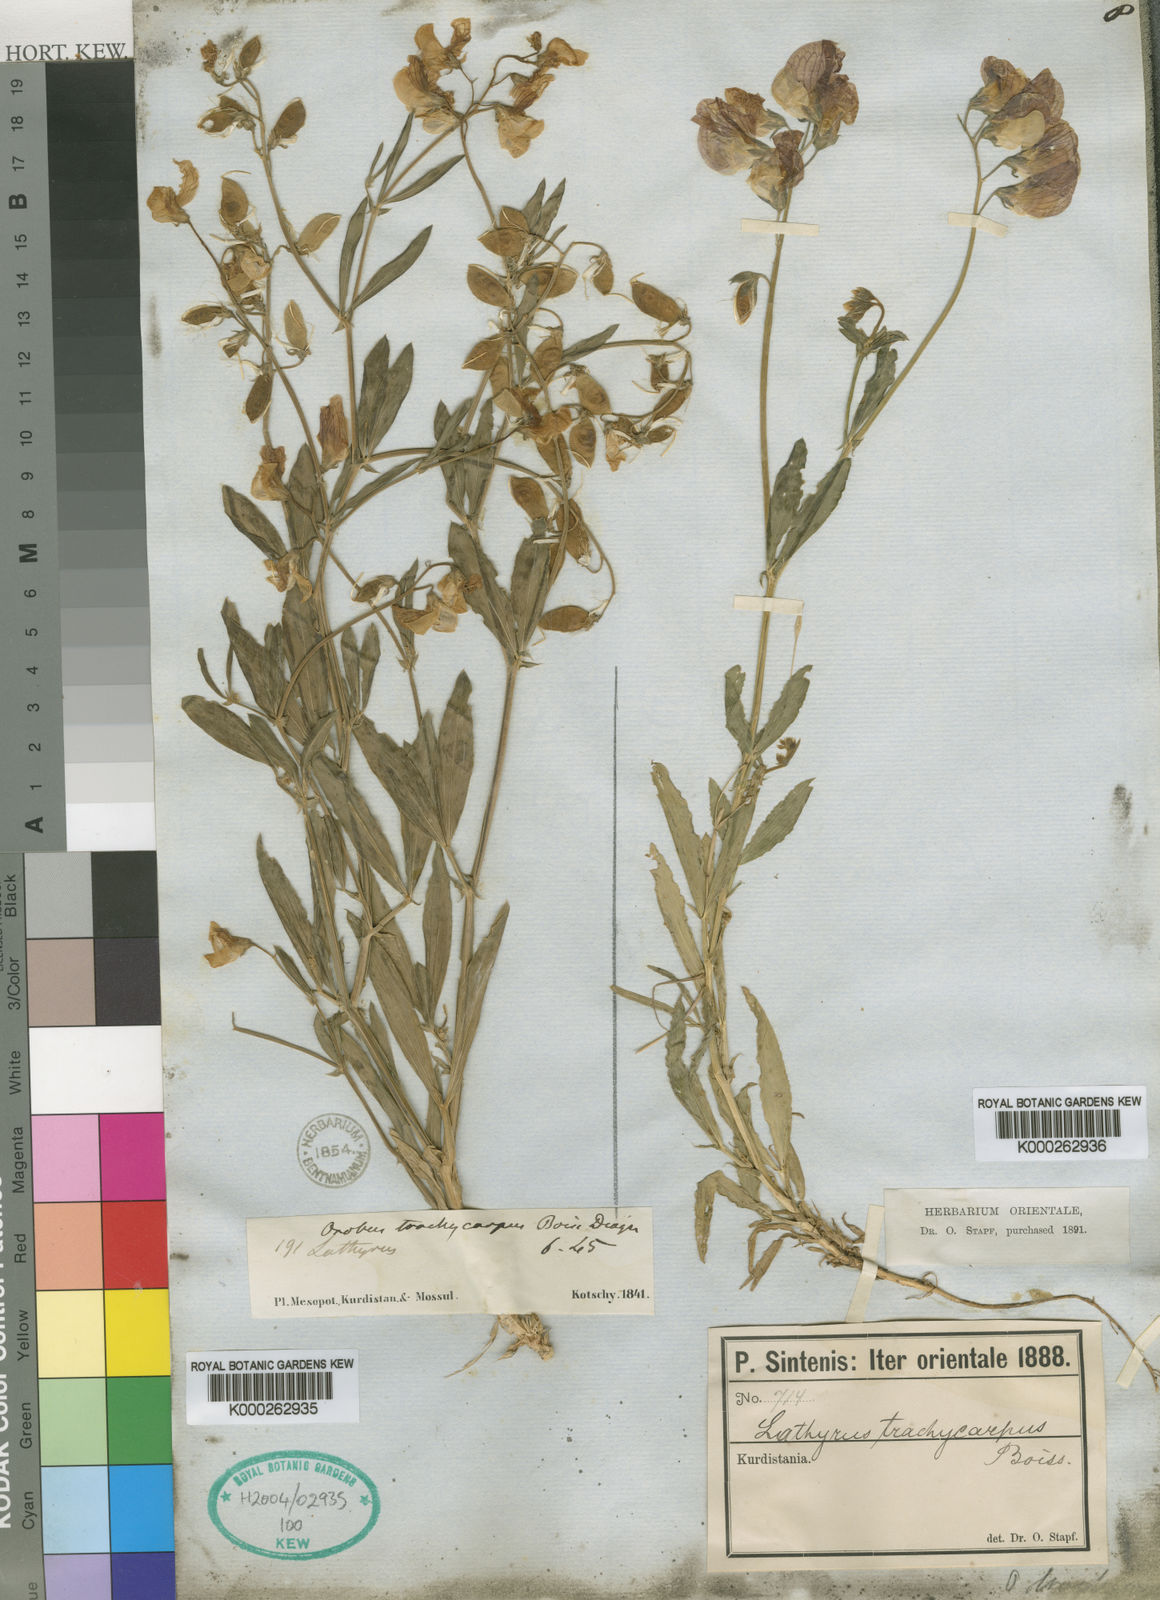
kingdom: Plantae
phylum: Tracheophyta
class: Magnoliopsida
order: Fabales
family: Fabaceae
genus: Lathyrus
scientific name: Lathyrus trachycarpus
